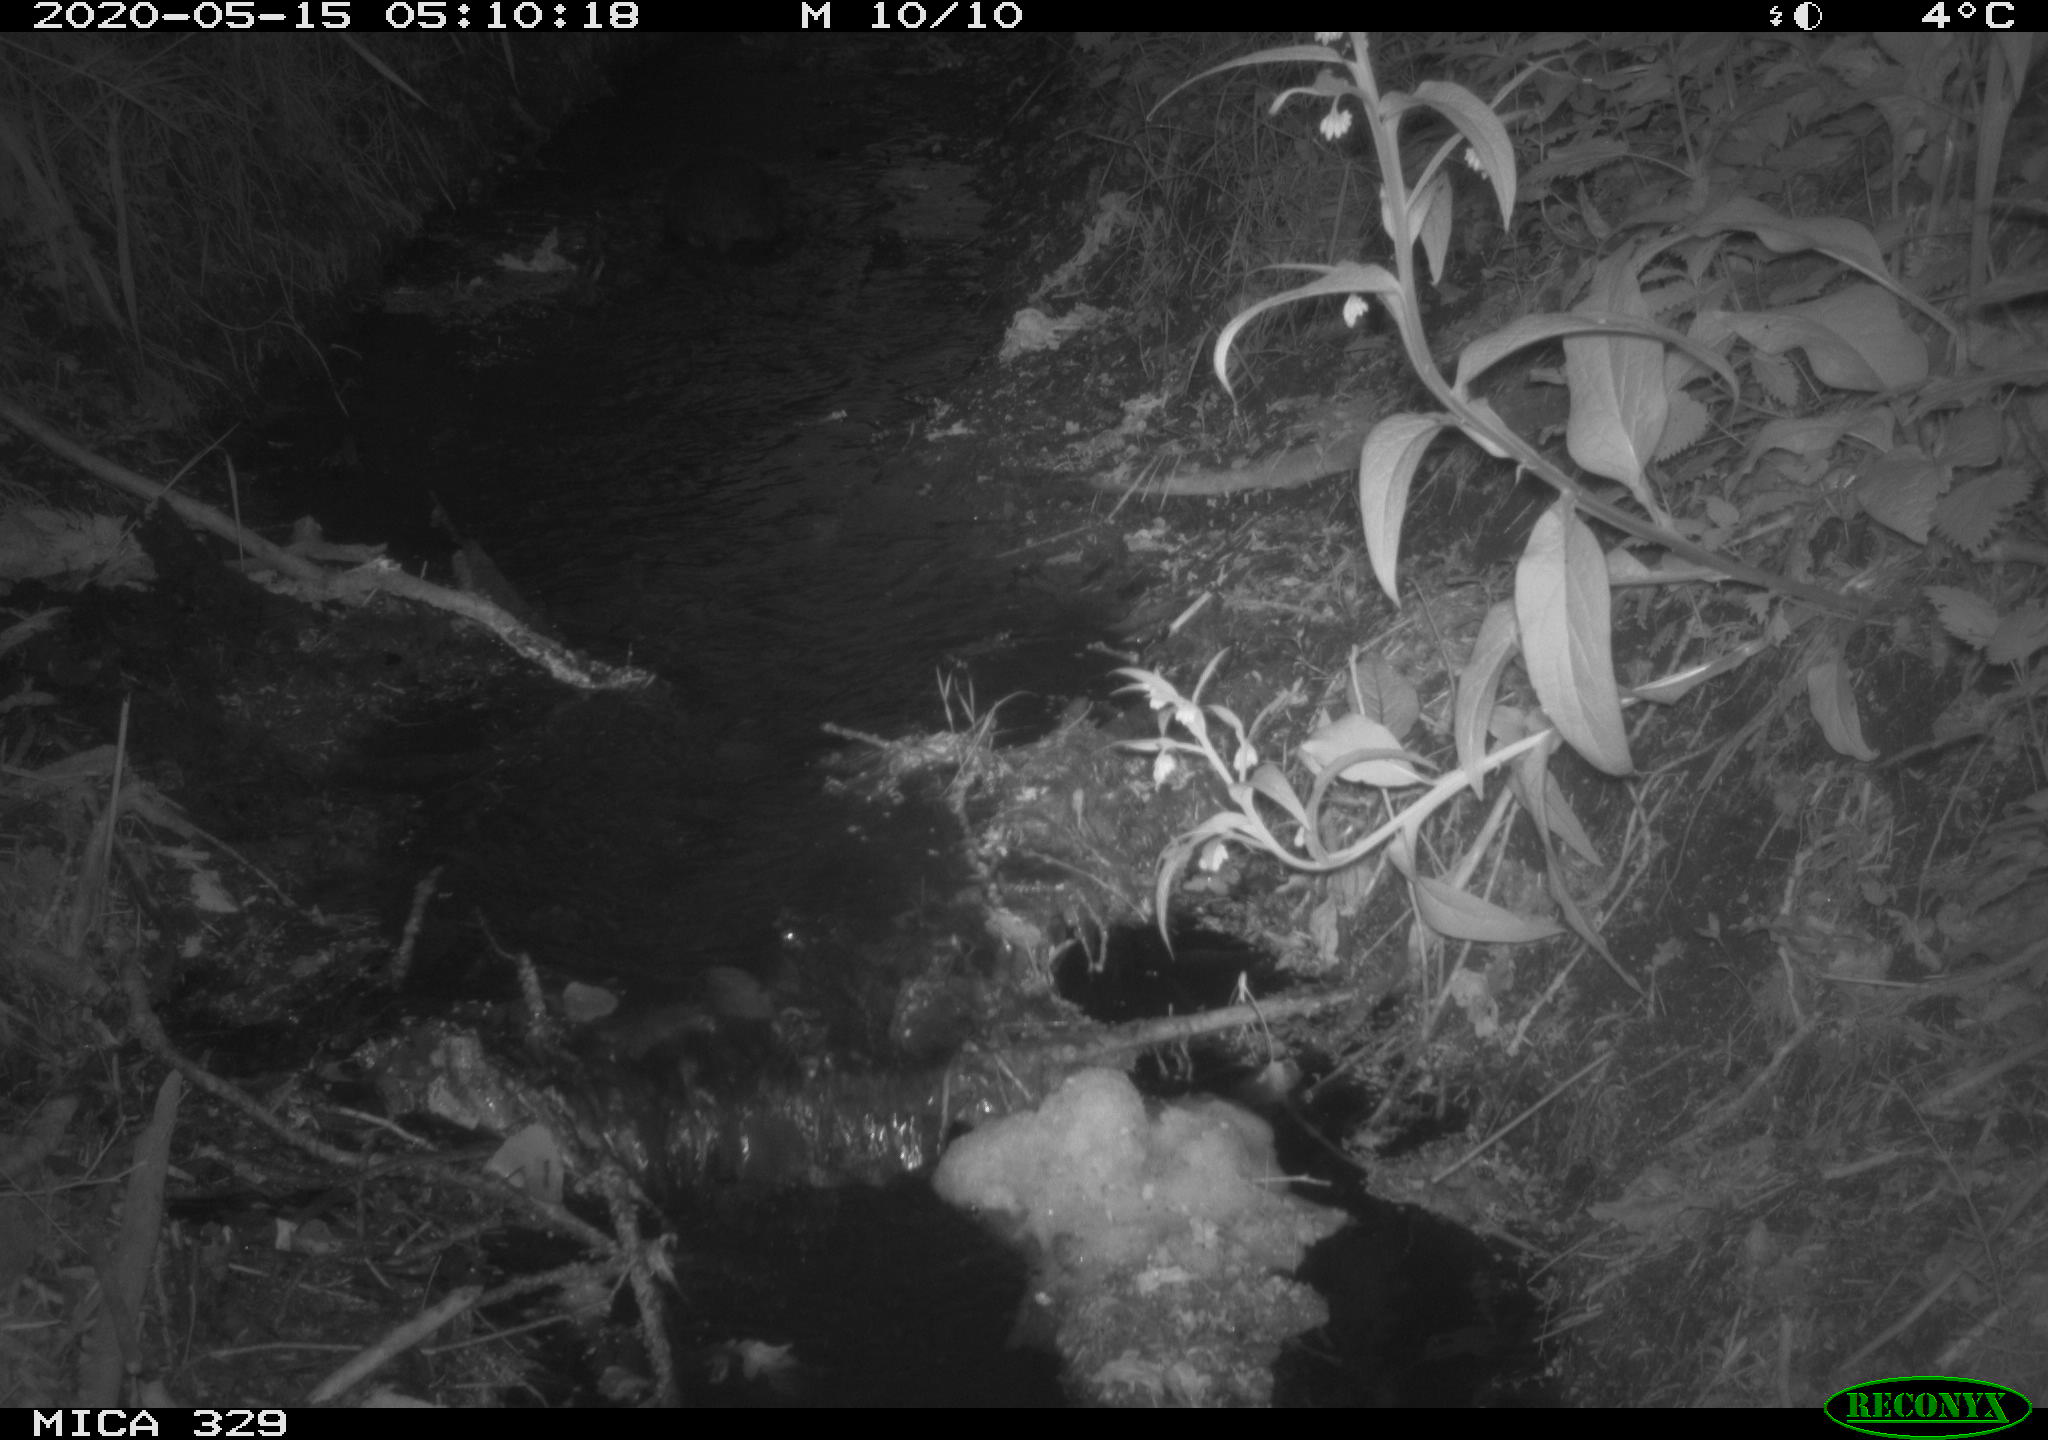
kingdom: Animalia
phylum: Chordata
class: Mammalia
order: Rodentia
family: Myocastoridae
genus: Myocastor
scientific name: Myocastor coypus
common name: Coypu
